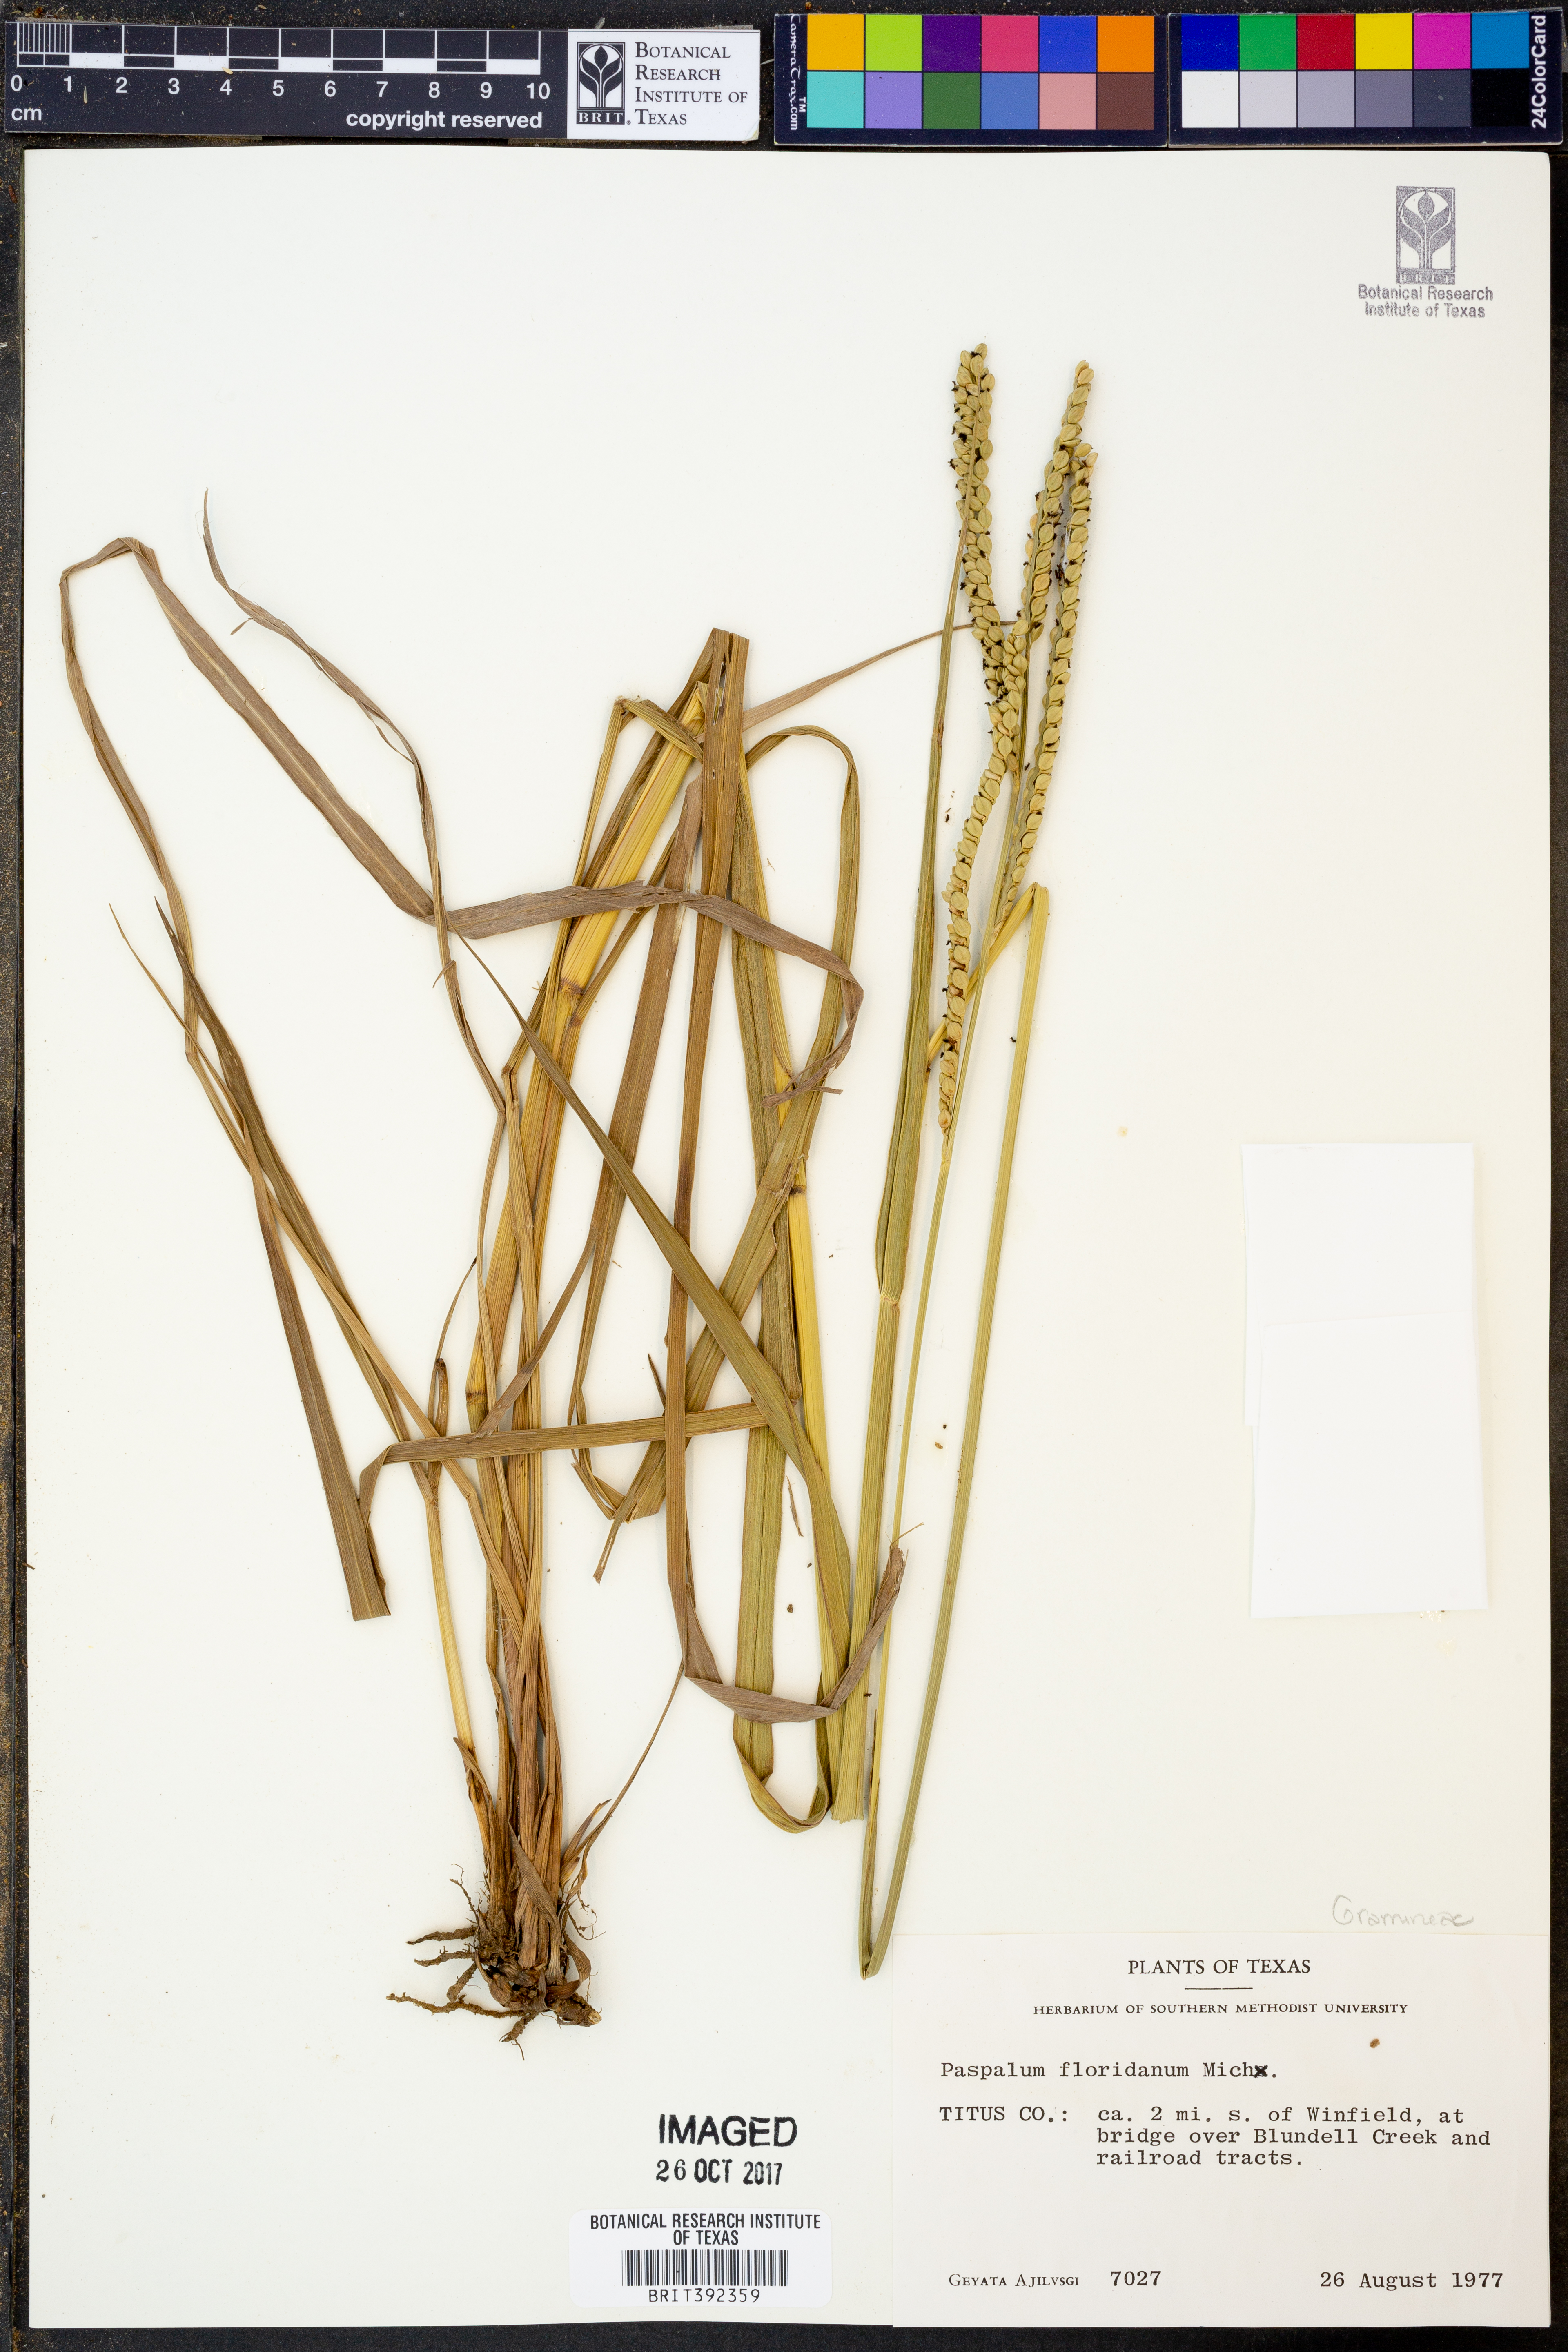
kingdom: Plantae
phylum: Tracheophyta
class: Liliopsida
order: Poales
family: Poaceae
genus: Paspalum
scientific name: Paspalum floridanum
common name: Florida paspalum
